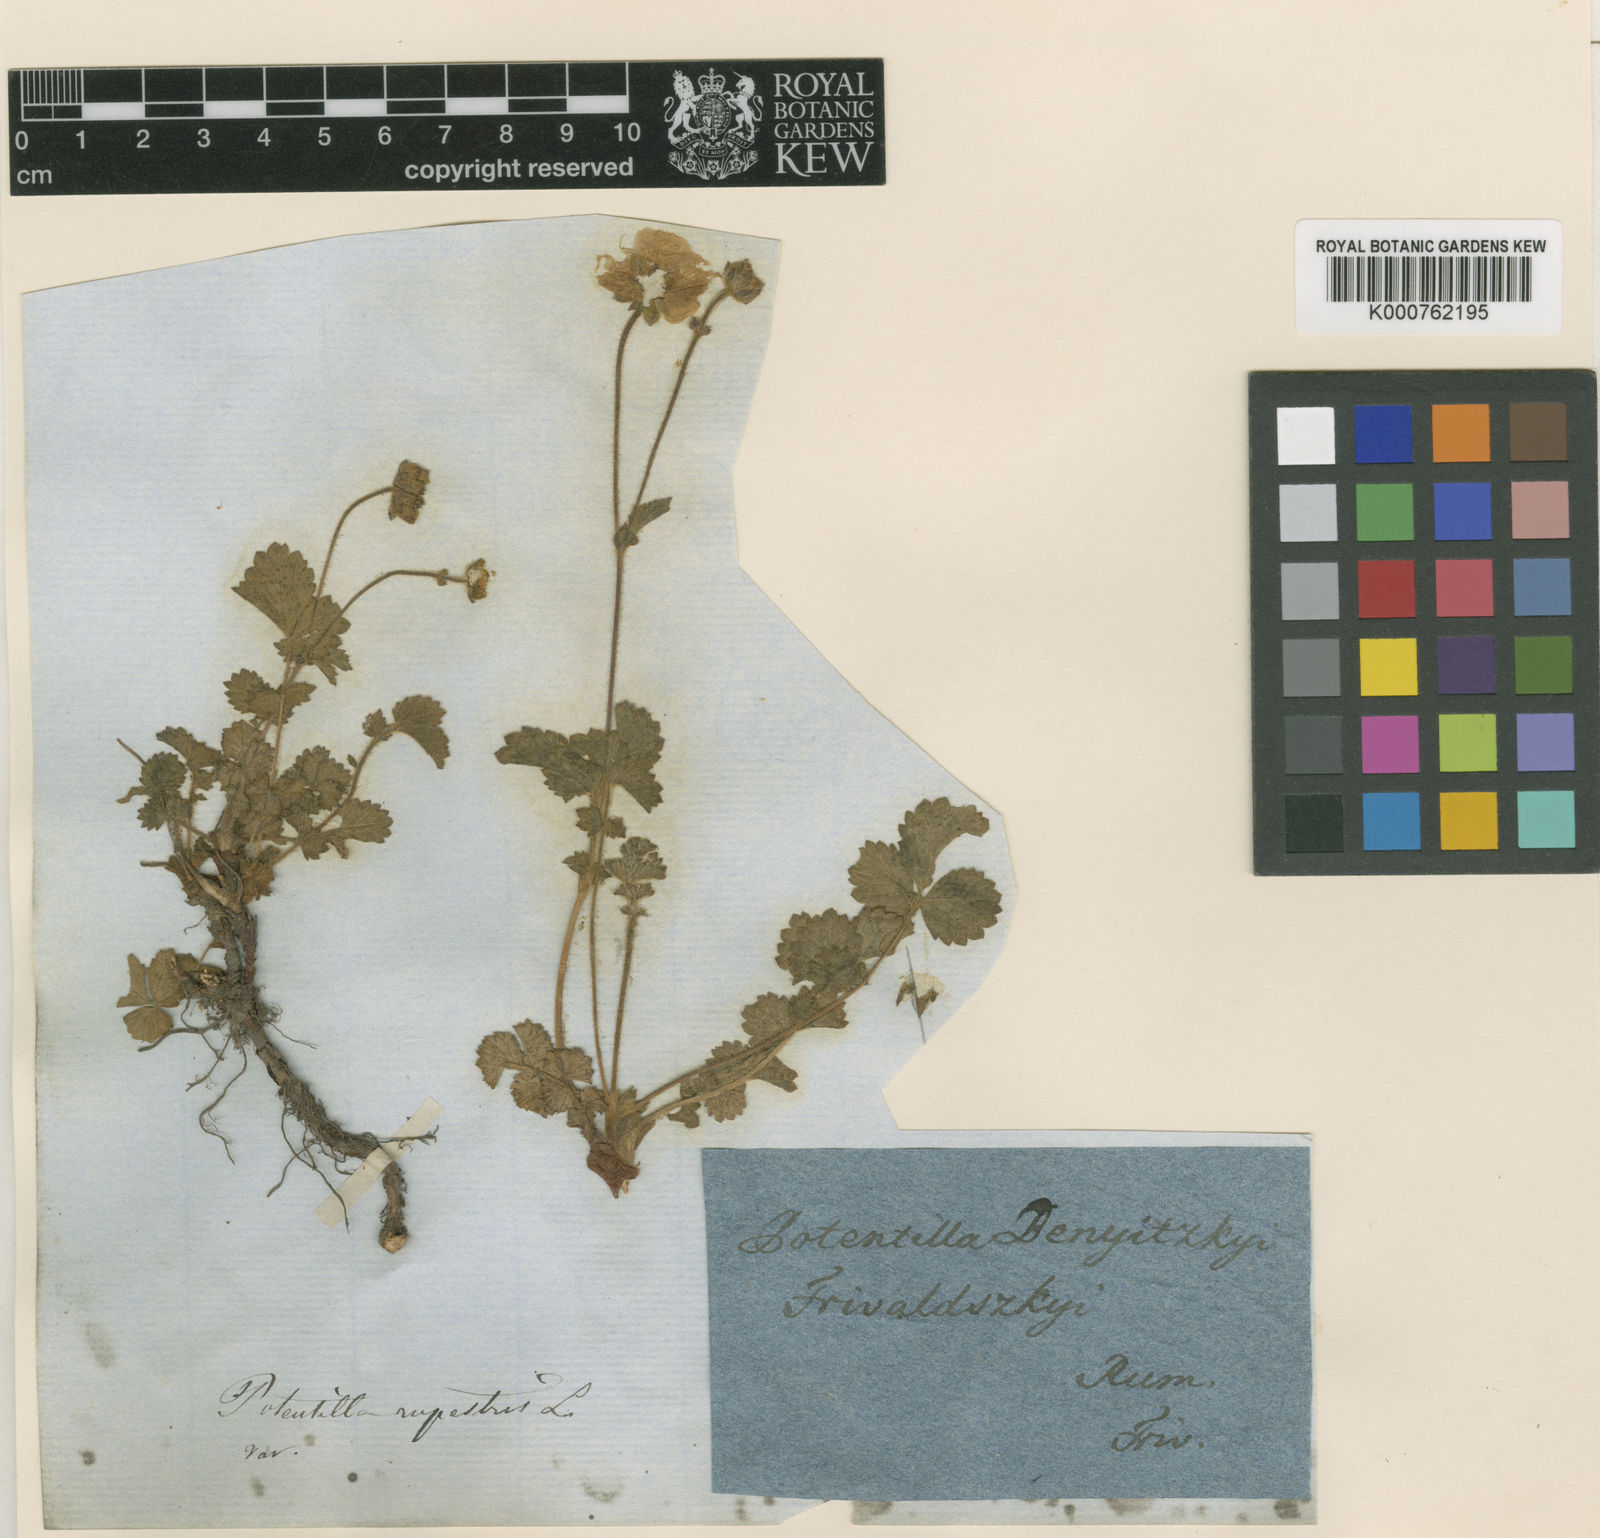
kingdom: Plantae
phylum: Tracheophyta
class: Magnoliopsida
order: Rosales
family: Rosaceae
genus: Drymocallis
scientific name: Drymocallis rupestris
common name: Rock cinquefoil
